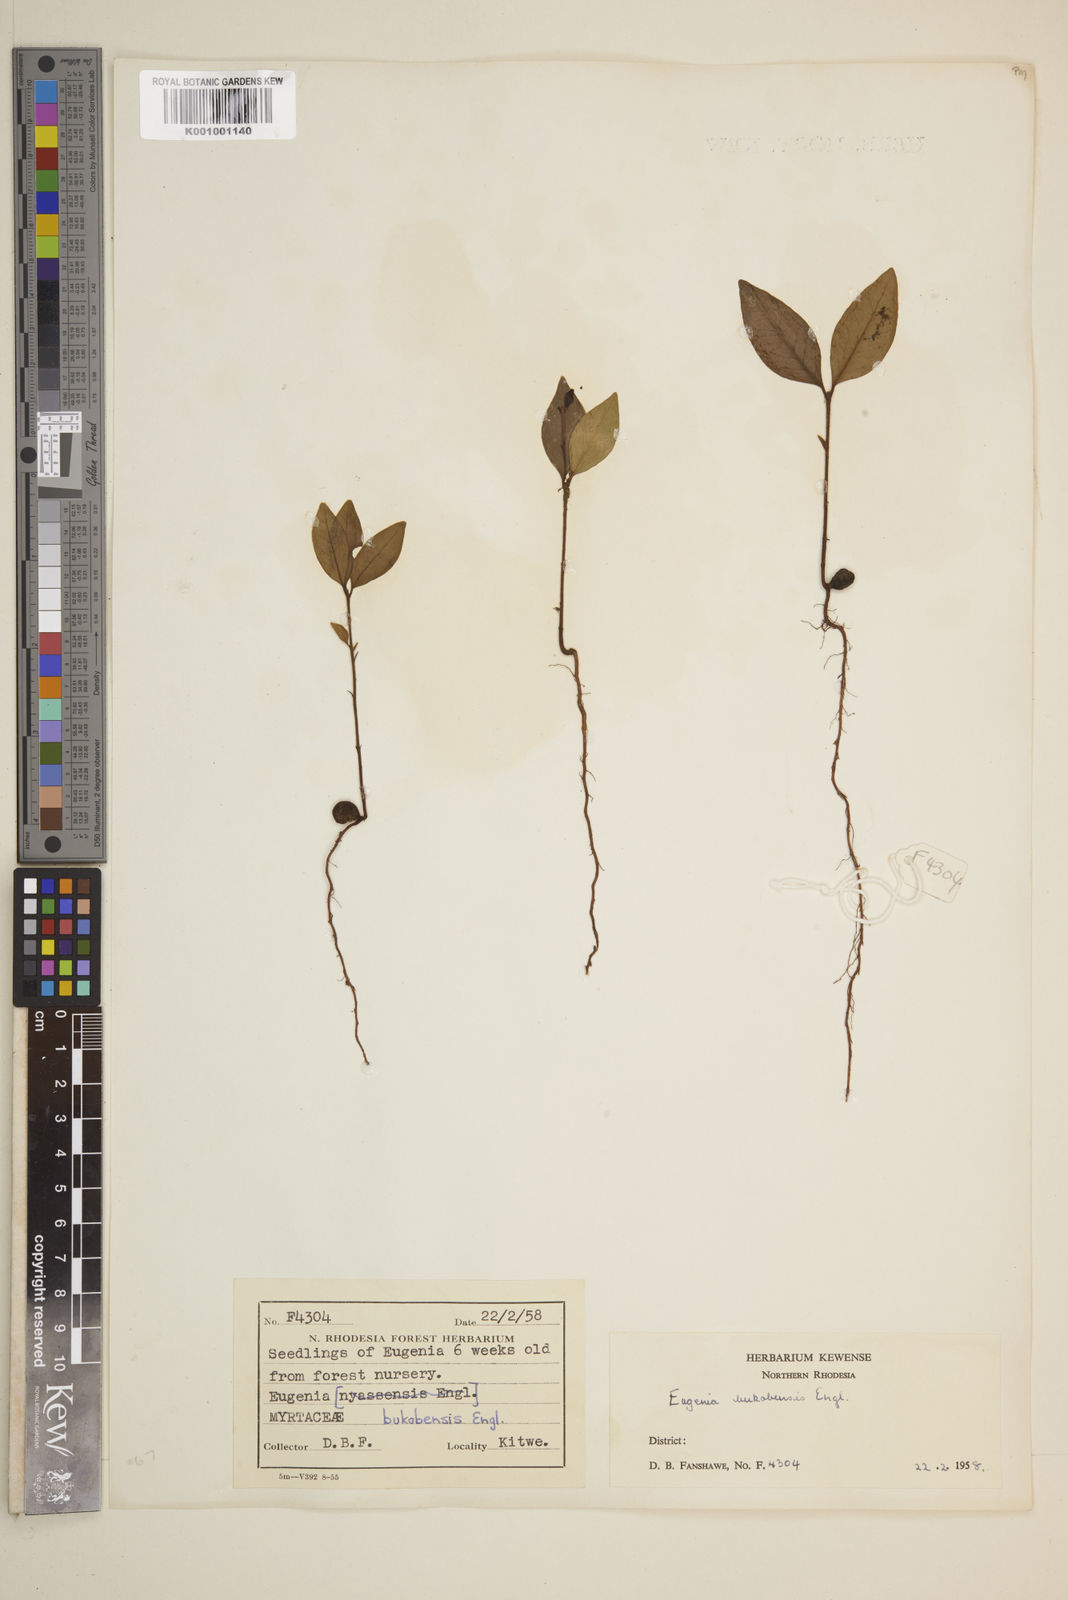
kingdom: Plantae
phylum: Tracheophyta
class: Magnoliopsida
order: Myrtales
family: Myrtaceae
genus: Eugenia
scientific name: Eugenia capensis
